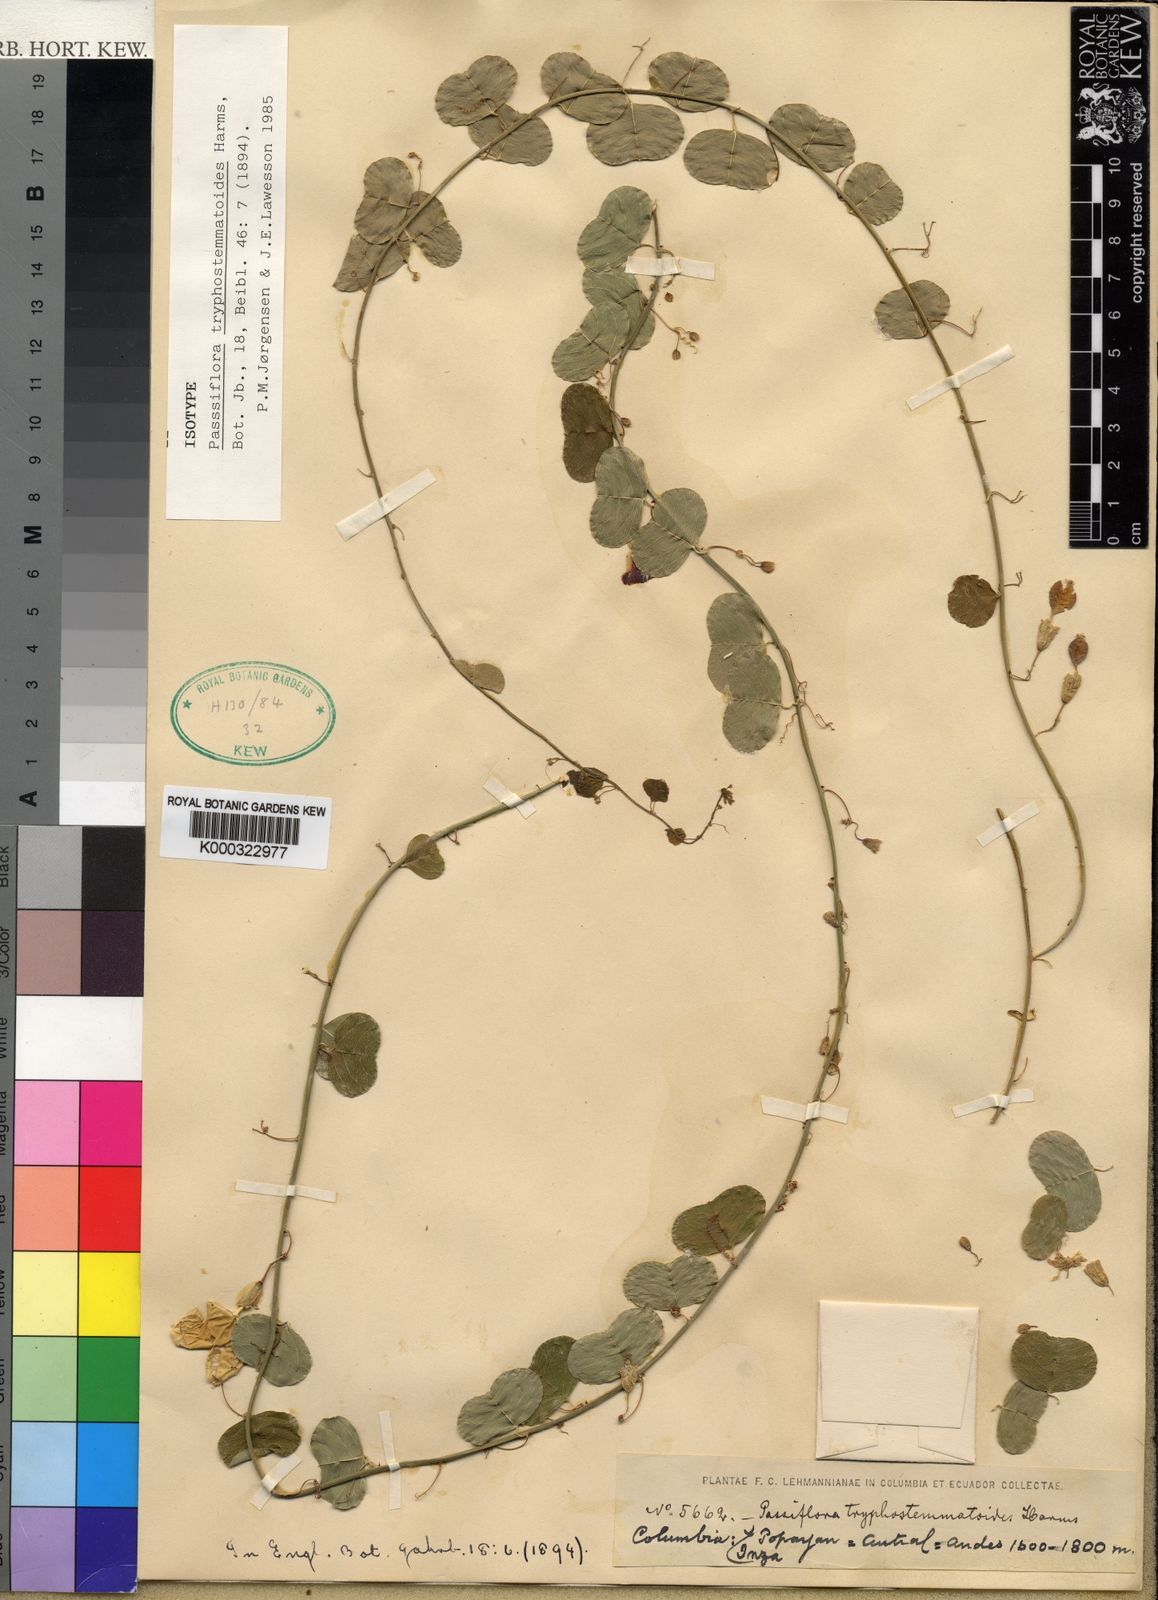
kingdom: Plantae
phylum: Tracheophyta
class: Magnoliopsida
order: Malpighiales
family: Passifloraceae
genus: Passiflora
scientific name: Passiflora tryphostemmatoides
